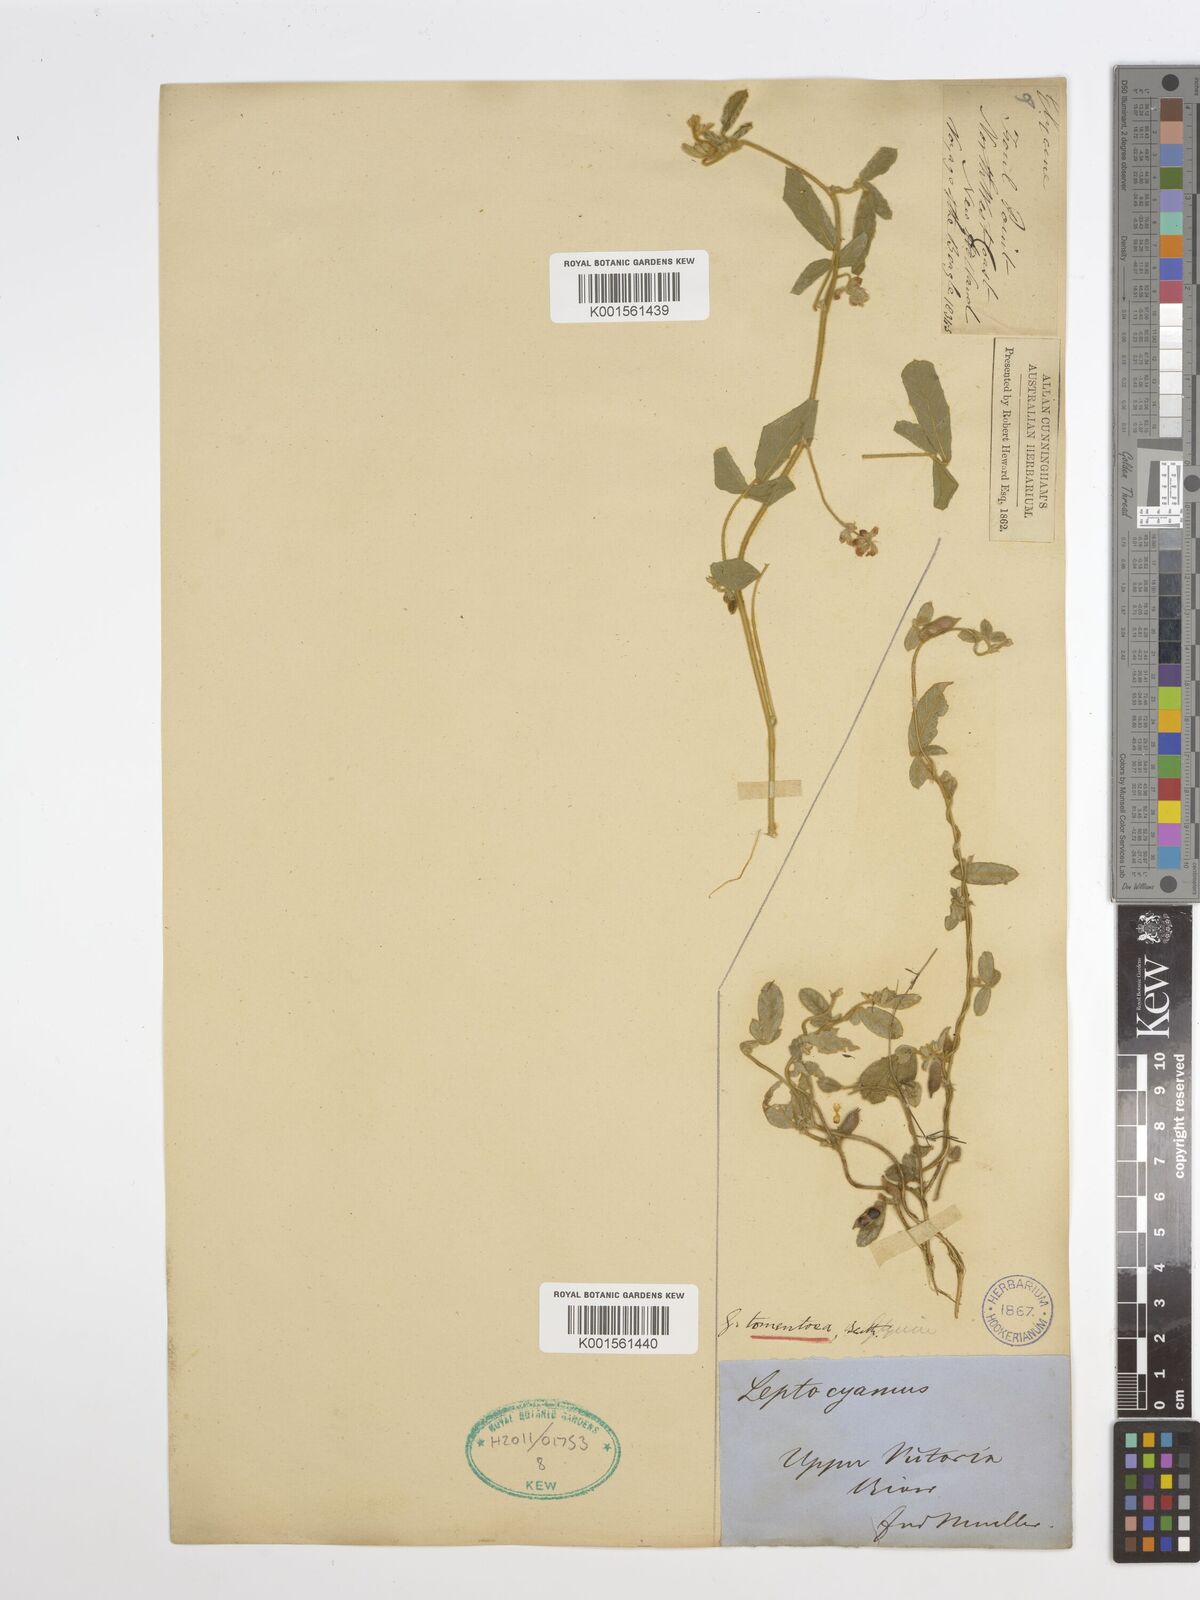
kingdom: Plantae
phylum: Tracheophyta
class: Magnoliopsida
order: Fabales
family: Fabaceae
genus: Glycine
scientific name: Glycine tomentella
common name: Hairy glycine
